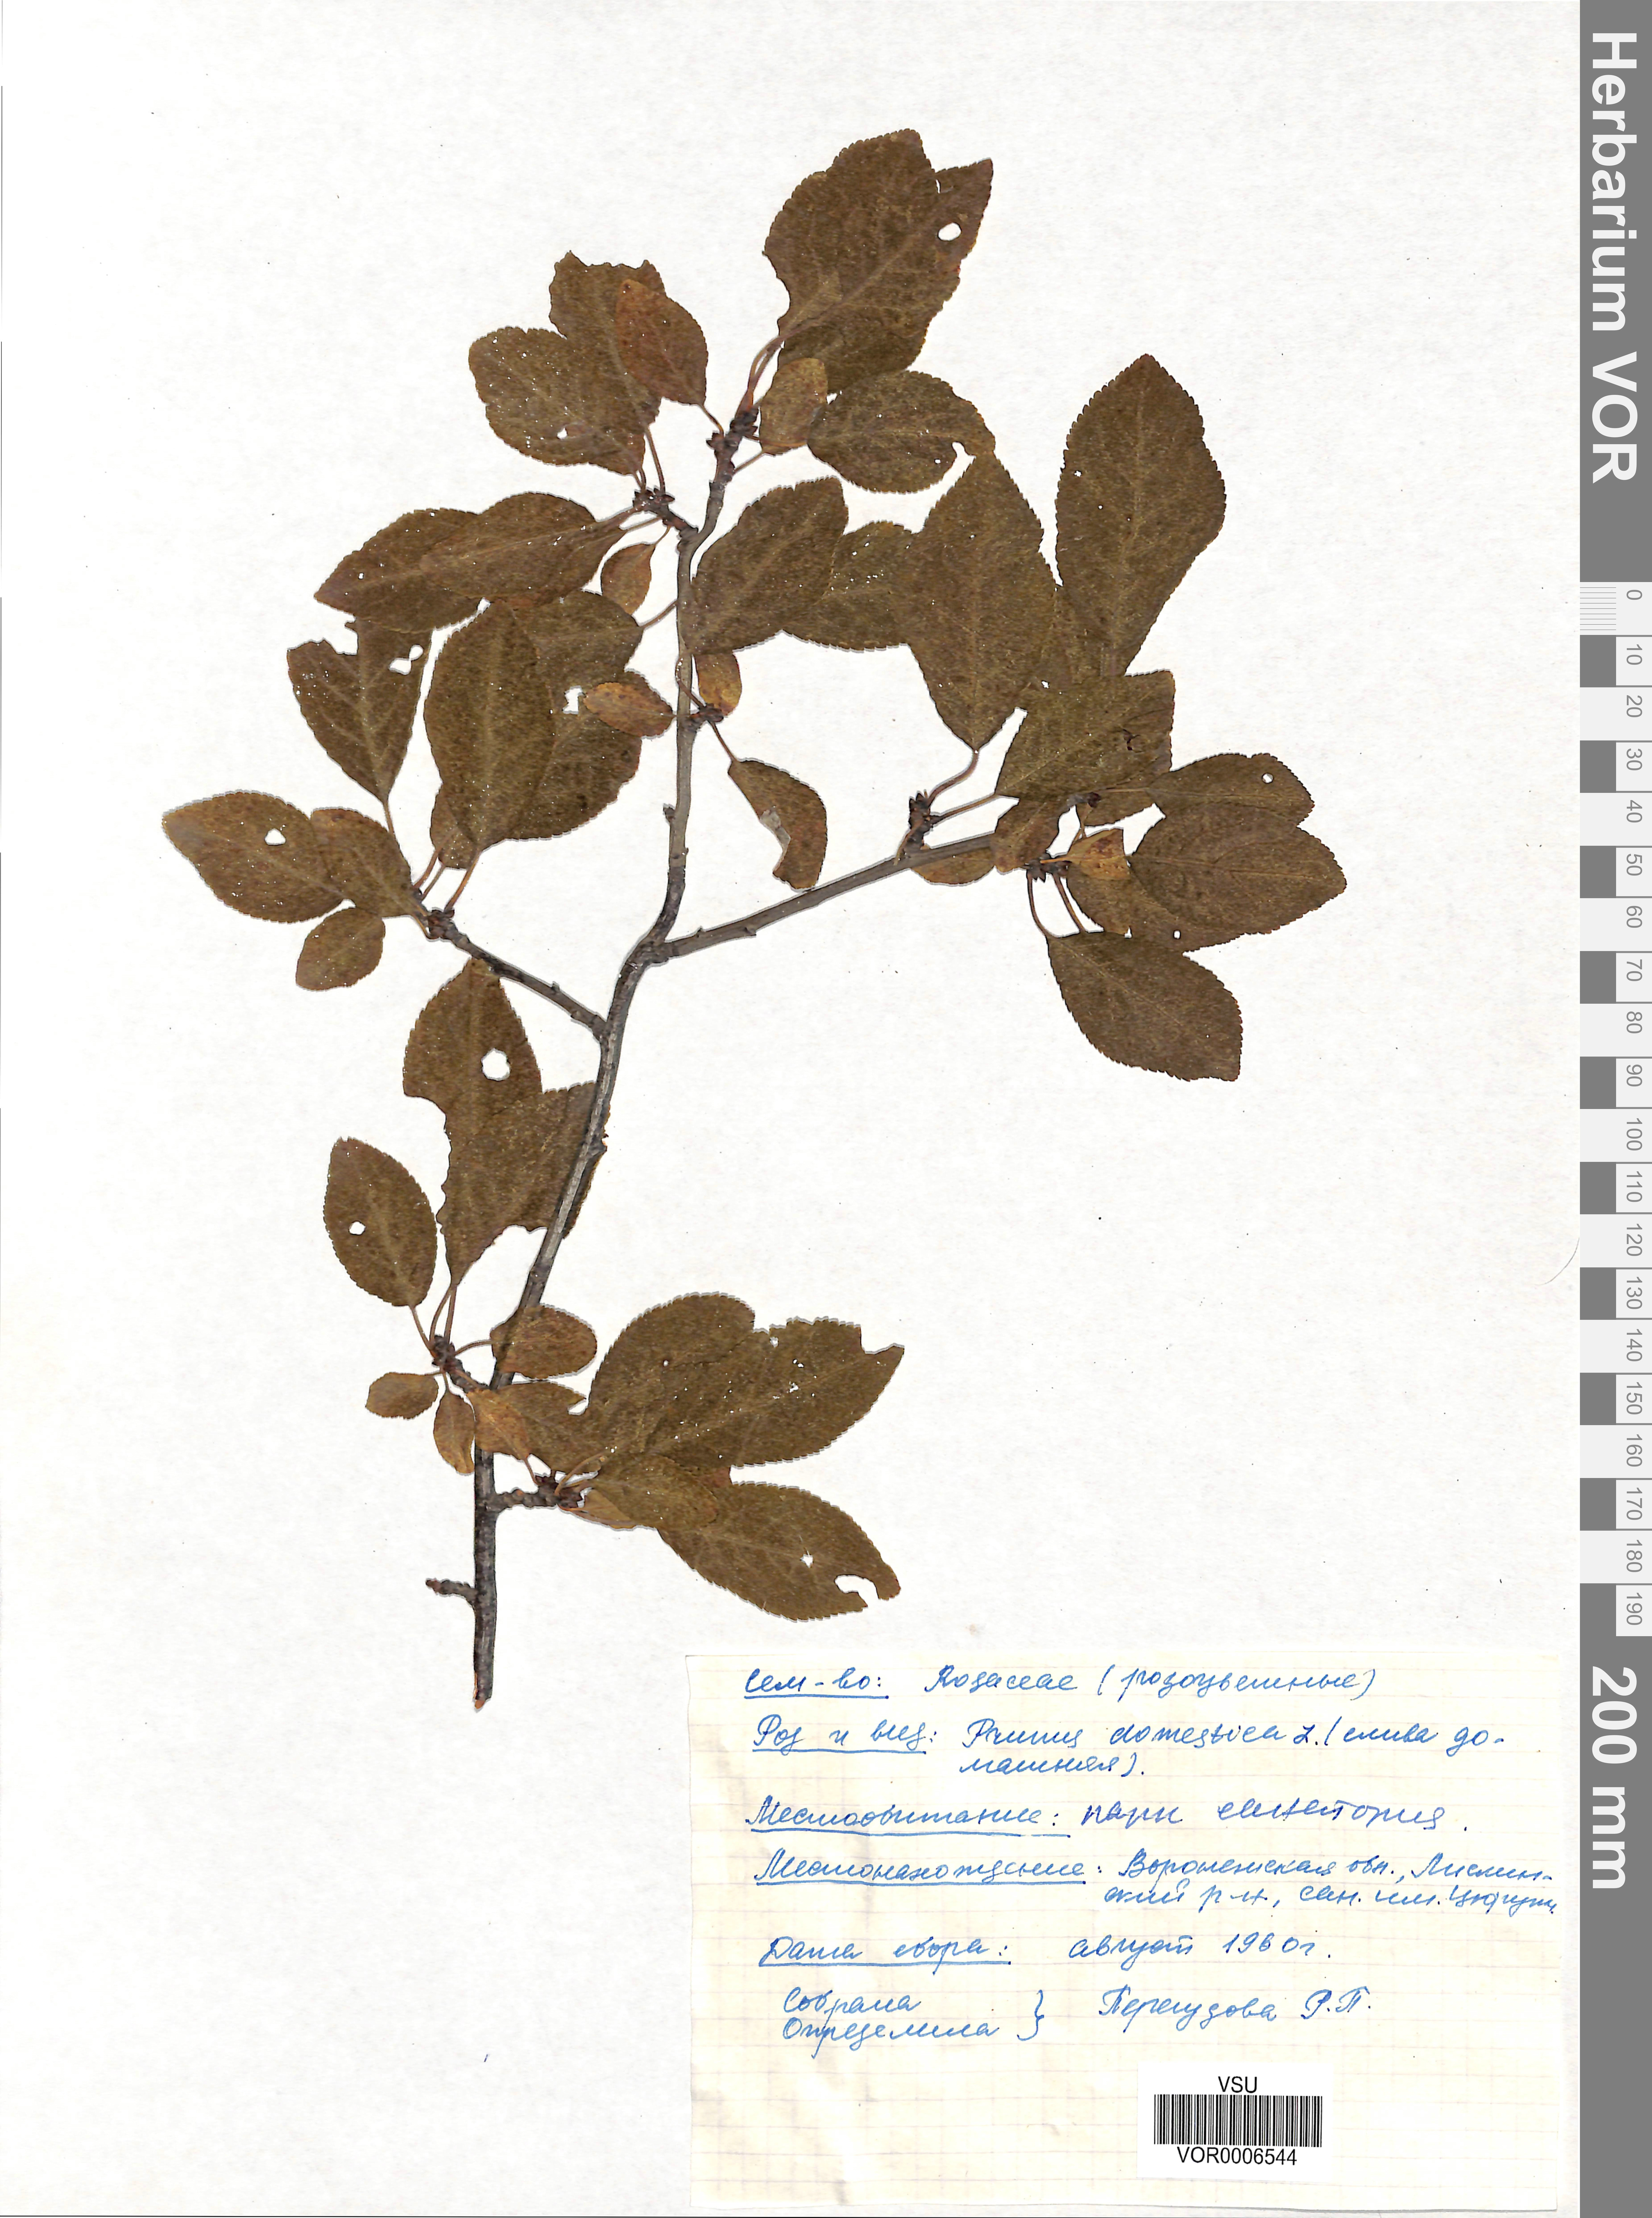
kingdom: Plantae
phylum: Tracheophyta
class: Magnoliopsida
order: Rosales
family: Rosaceae
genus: Prunus
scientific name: Prunus domestica
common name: Wild plum
